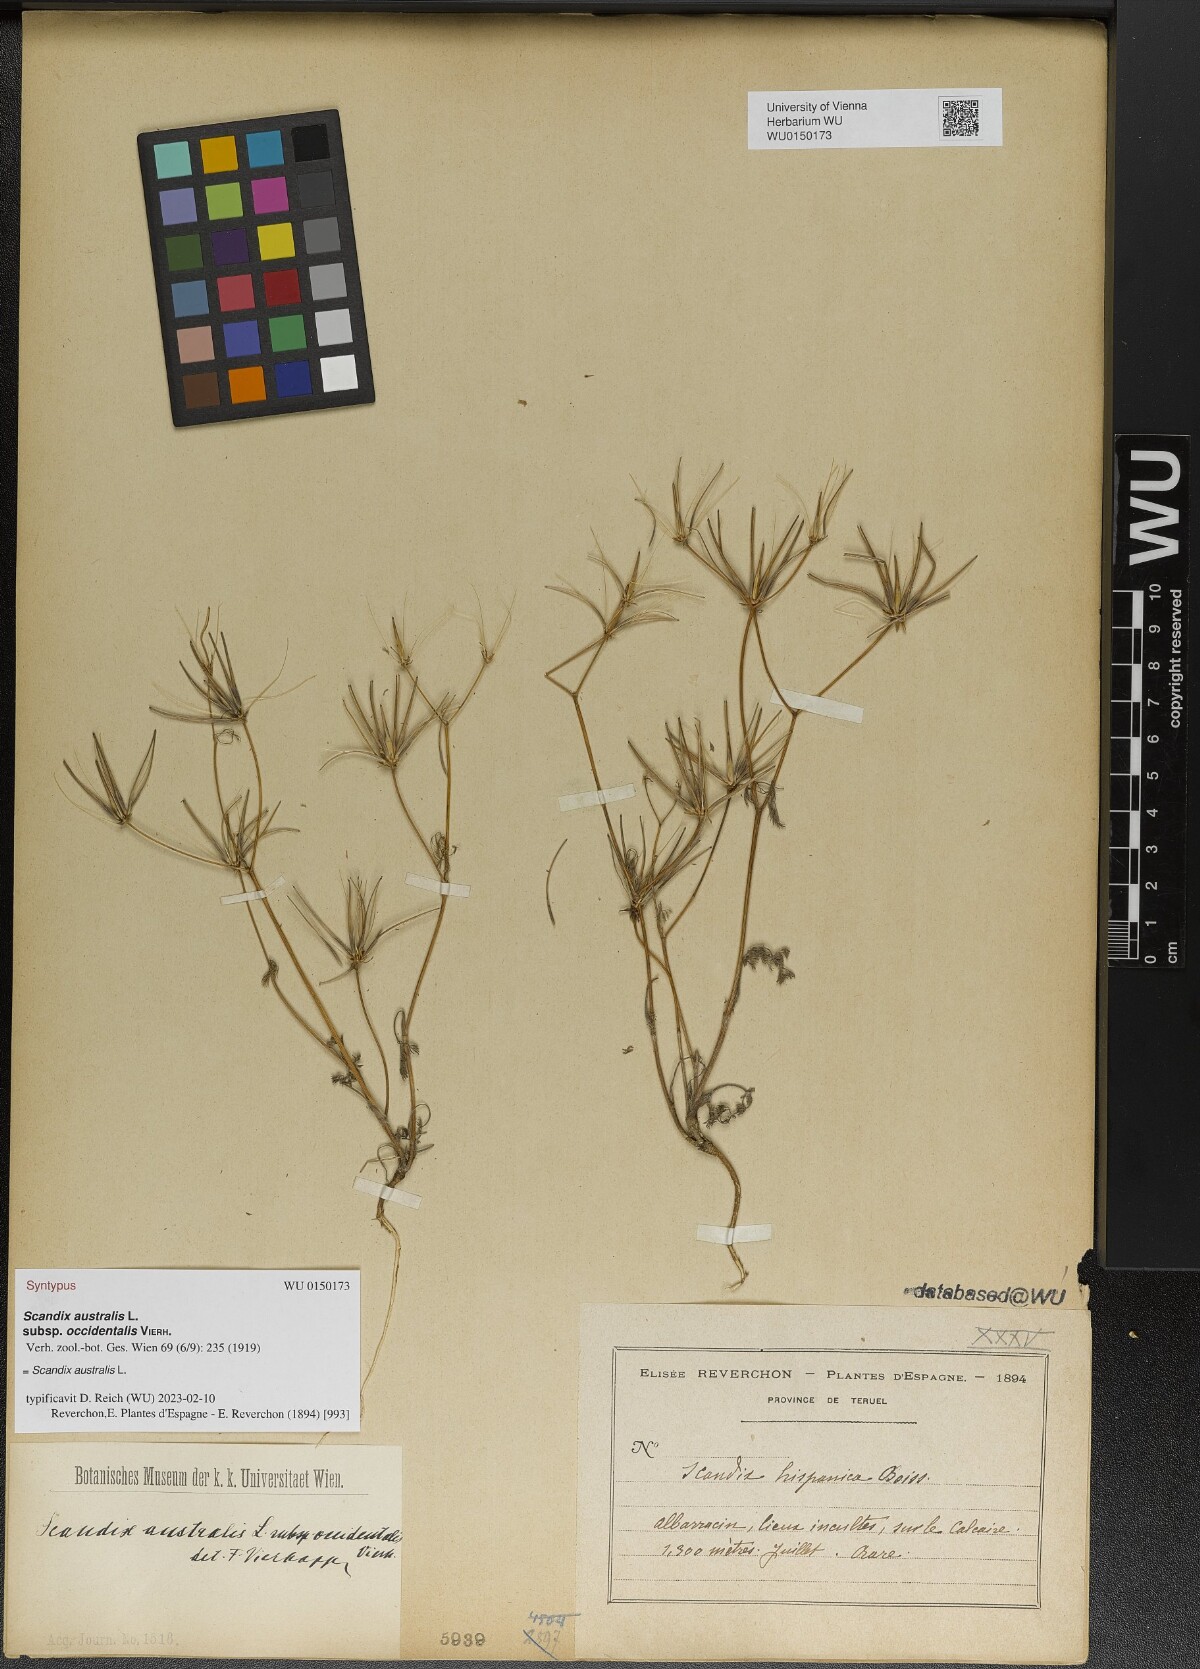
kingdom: Plantae
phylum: Tracheophyta
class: Magnoliopsida
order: Apiales
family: Apiaceae
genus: Scandix
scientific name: Scandix australis
